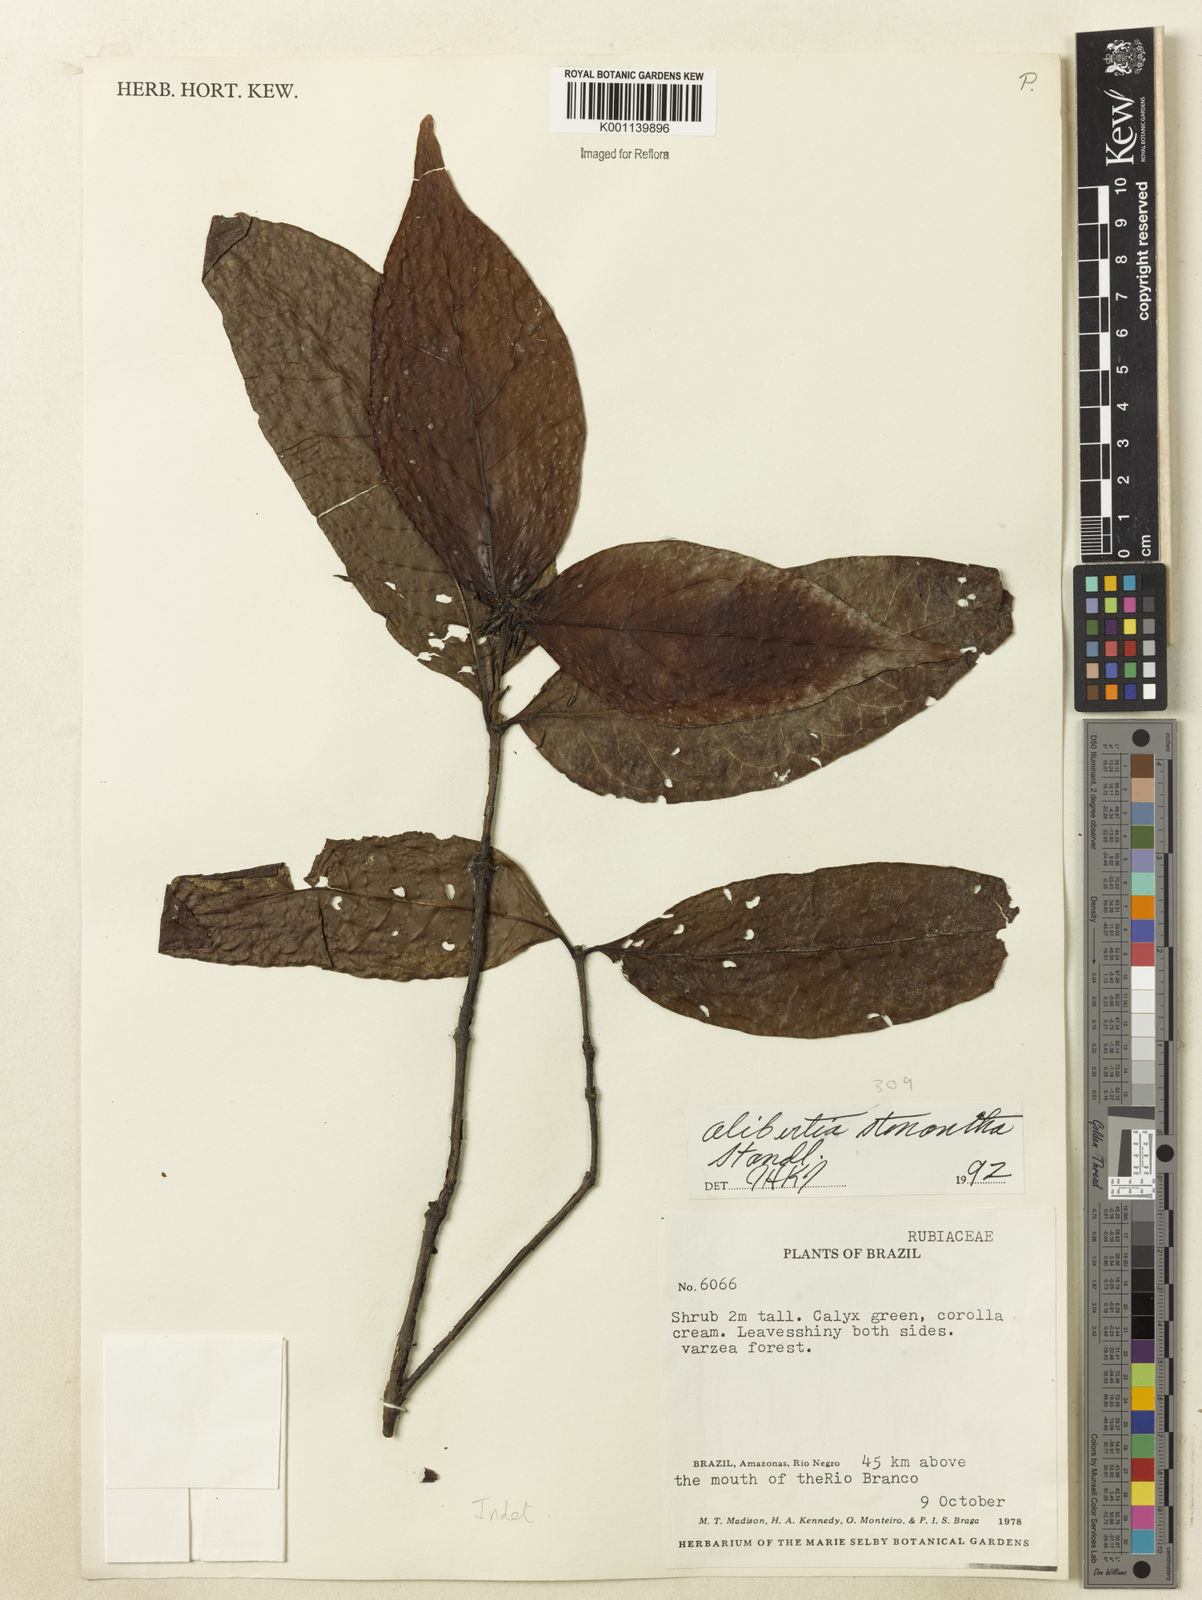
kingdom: Plantae
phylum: Tracheophyta
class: Magnoliopsida
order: Gentianales
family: Rubiaceae
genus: Alibertia
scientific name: Alibertia bertierifolia
